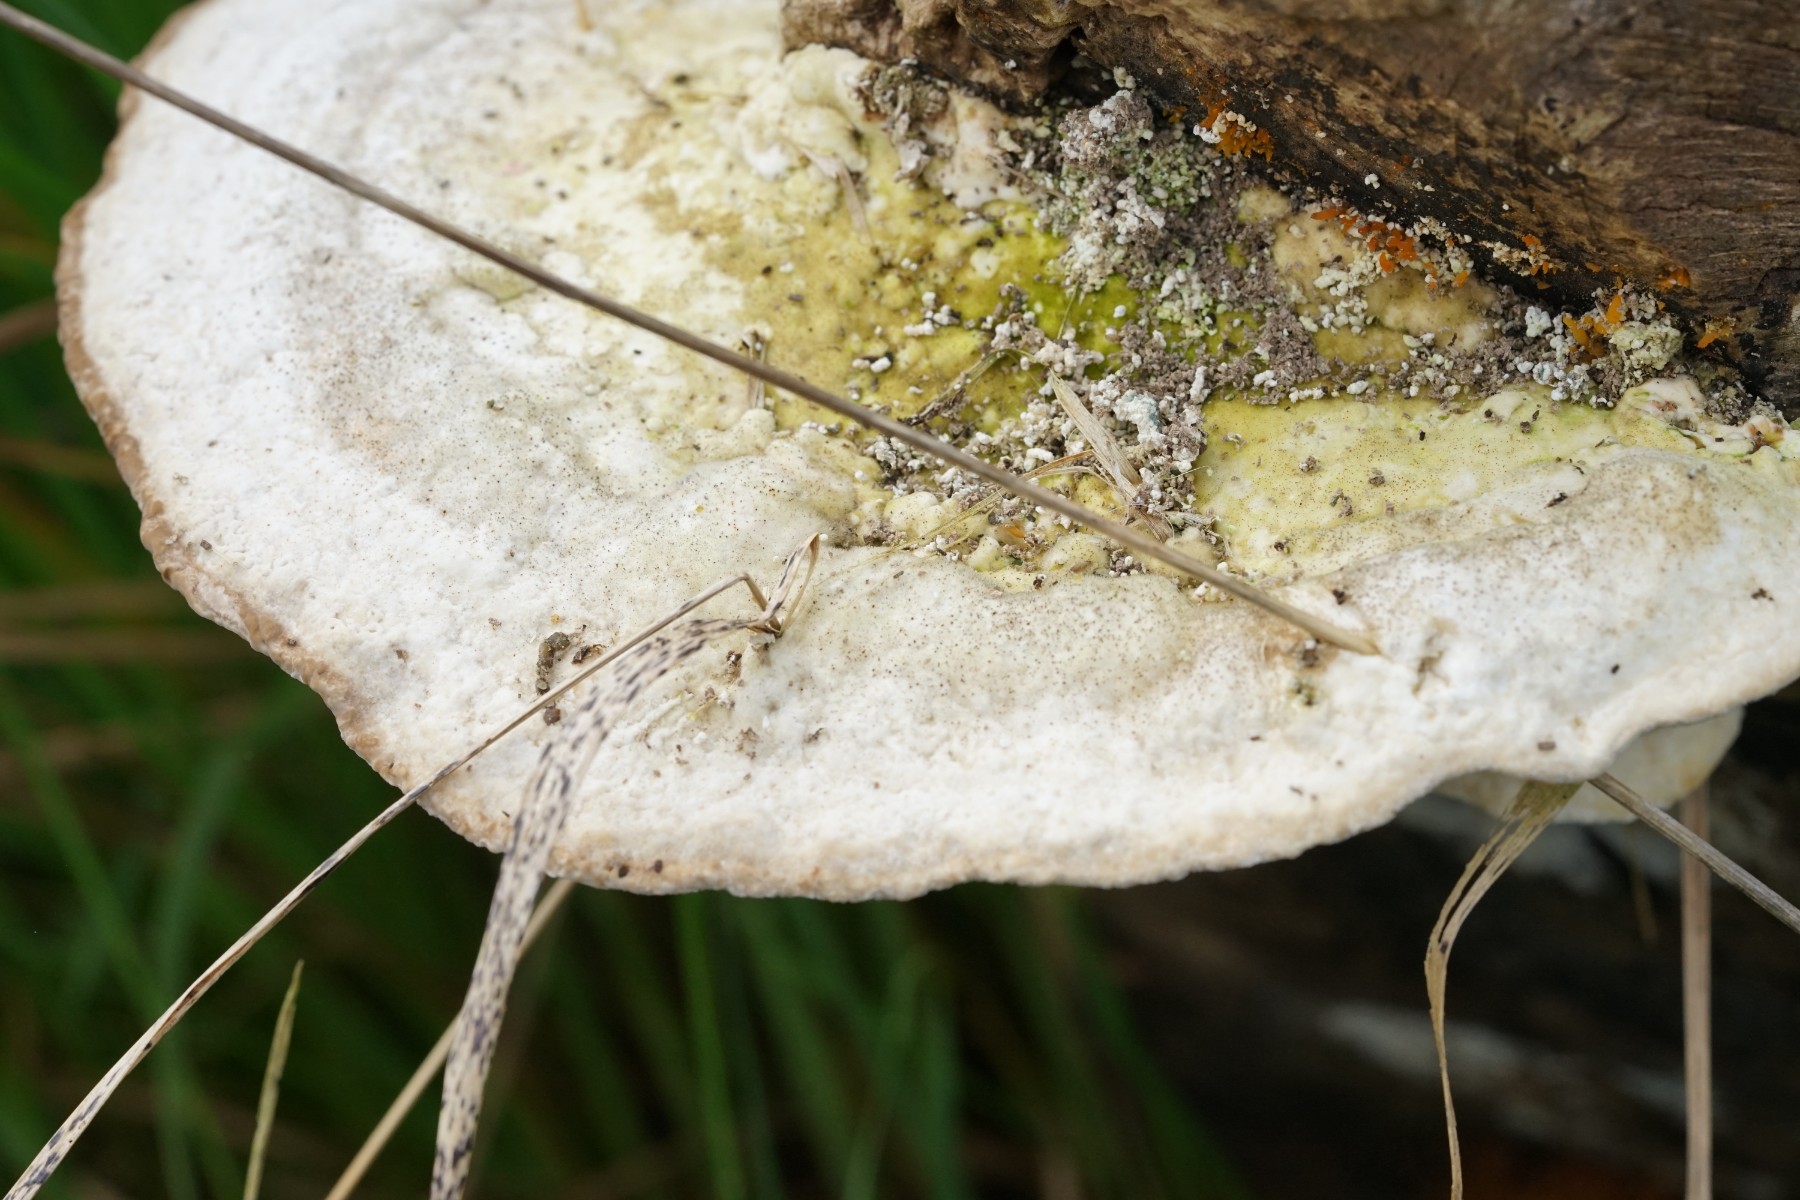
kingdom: Fungi
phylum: Basidiomycota
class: Agaricomycetes
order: Polyporales
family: Polyporaceae
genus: Trametes
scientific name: Trametes gibbosa
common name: puklet læderporesvamp
